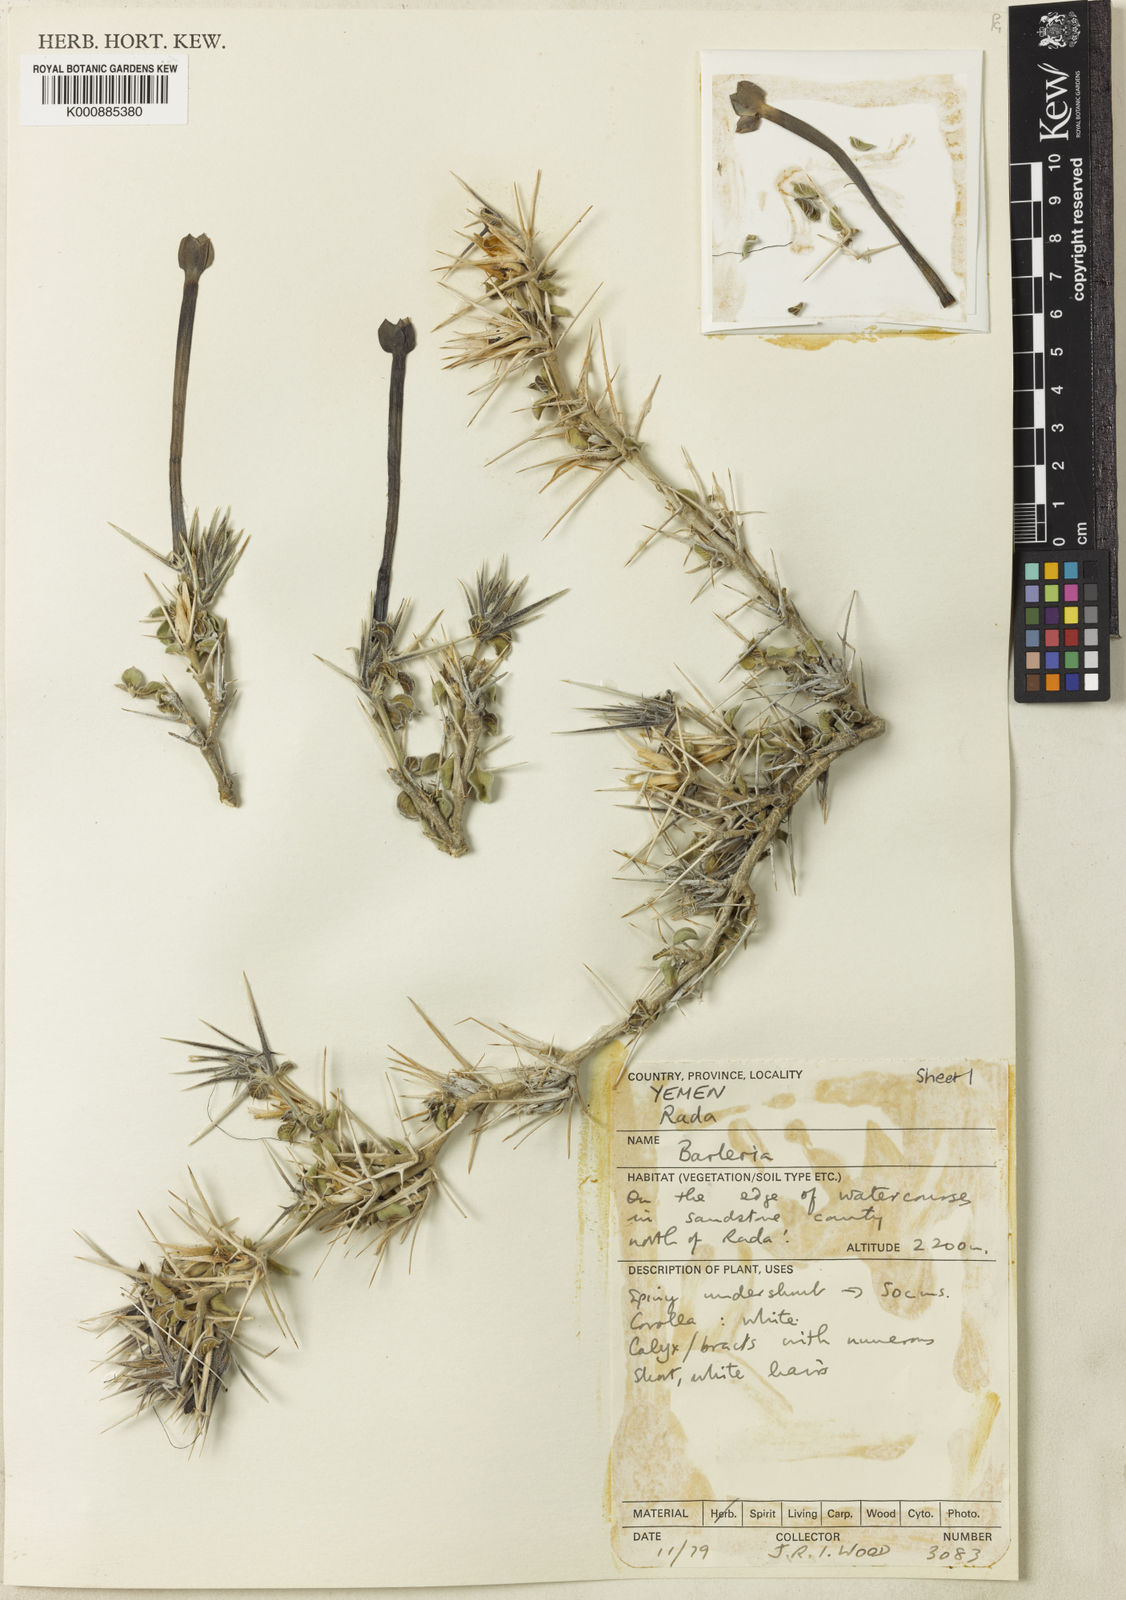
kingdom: Plantae
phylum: Tracheophyta
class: Magnoliopsida
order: Lamiales
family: Acanthaceae
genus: Barleria
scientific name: Barleria hillcoatiae
